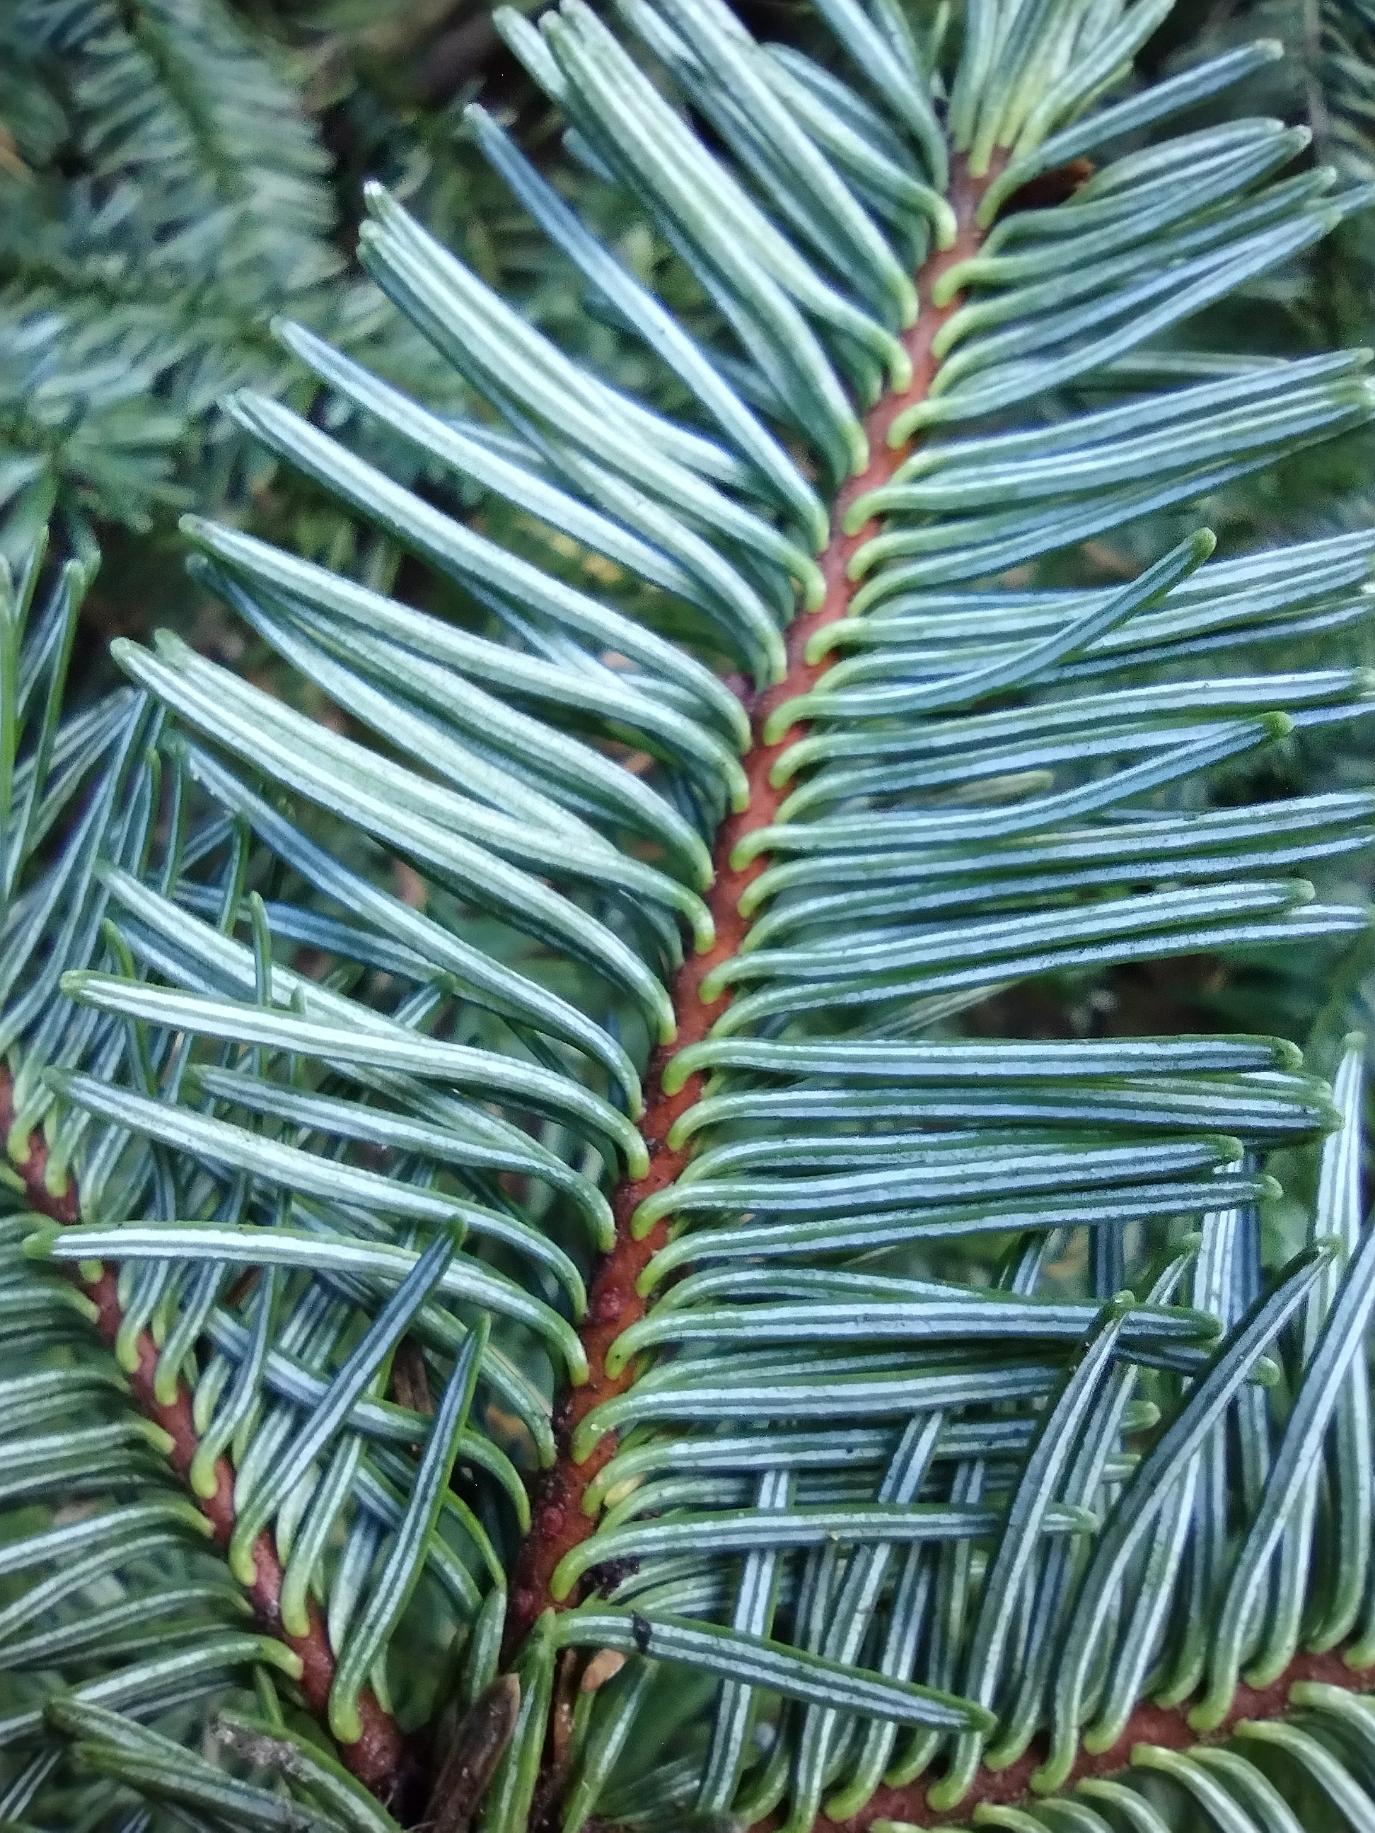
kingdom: Plantae
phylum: Tracheophyta
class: Pinopsida
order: Pinales
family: Pinaceae
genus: Abies
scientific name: Abies procera
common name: Sølvgran
